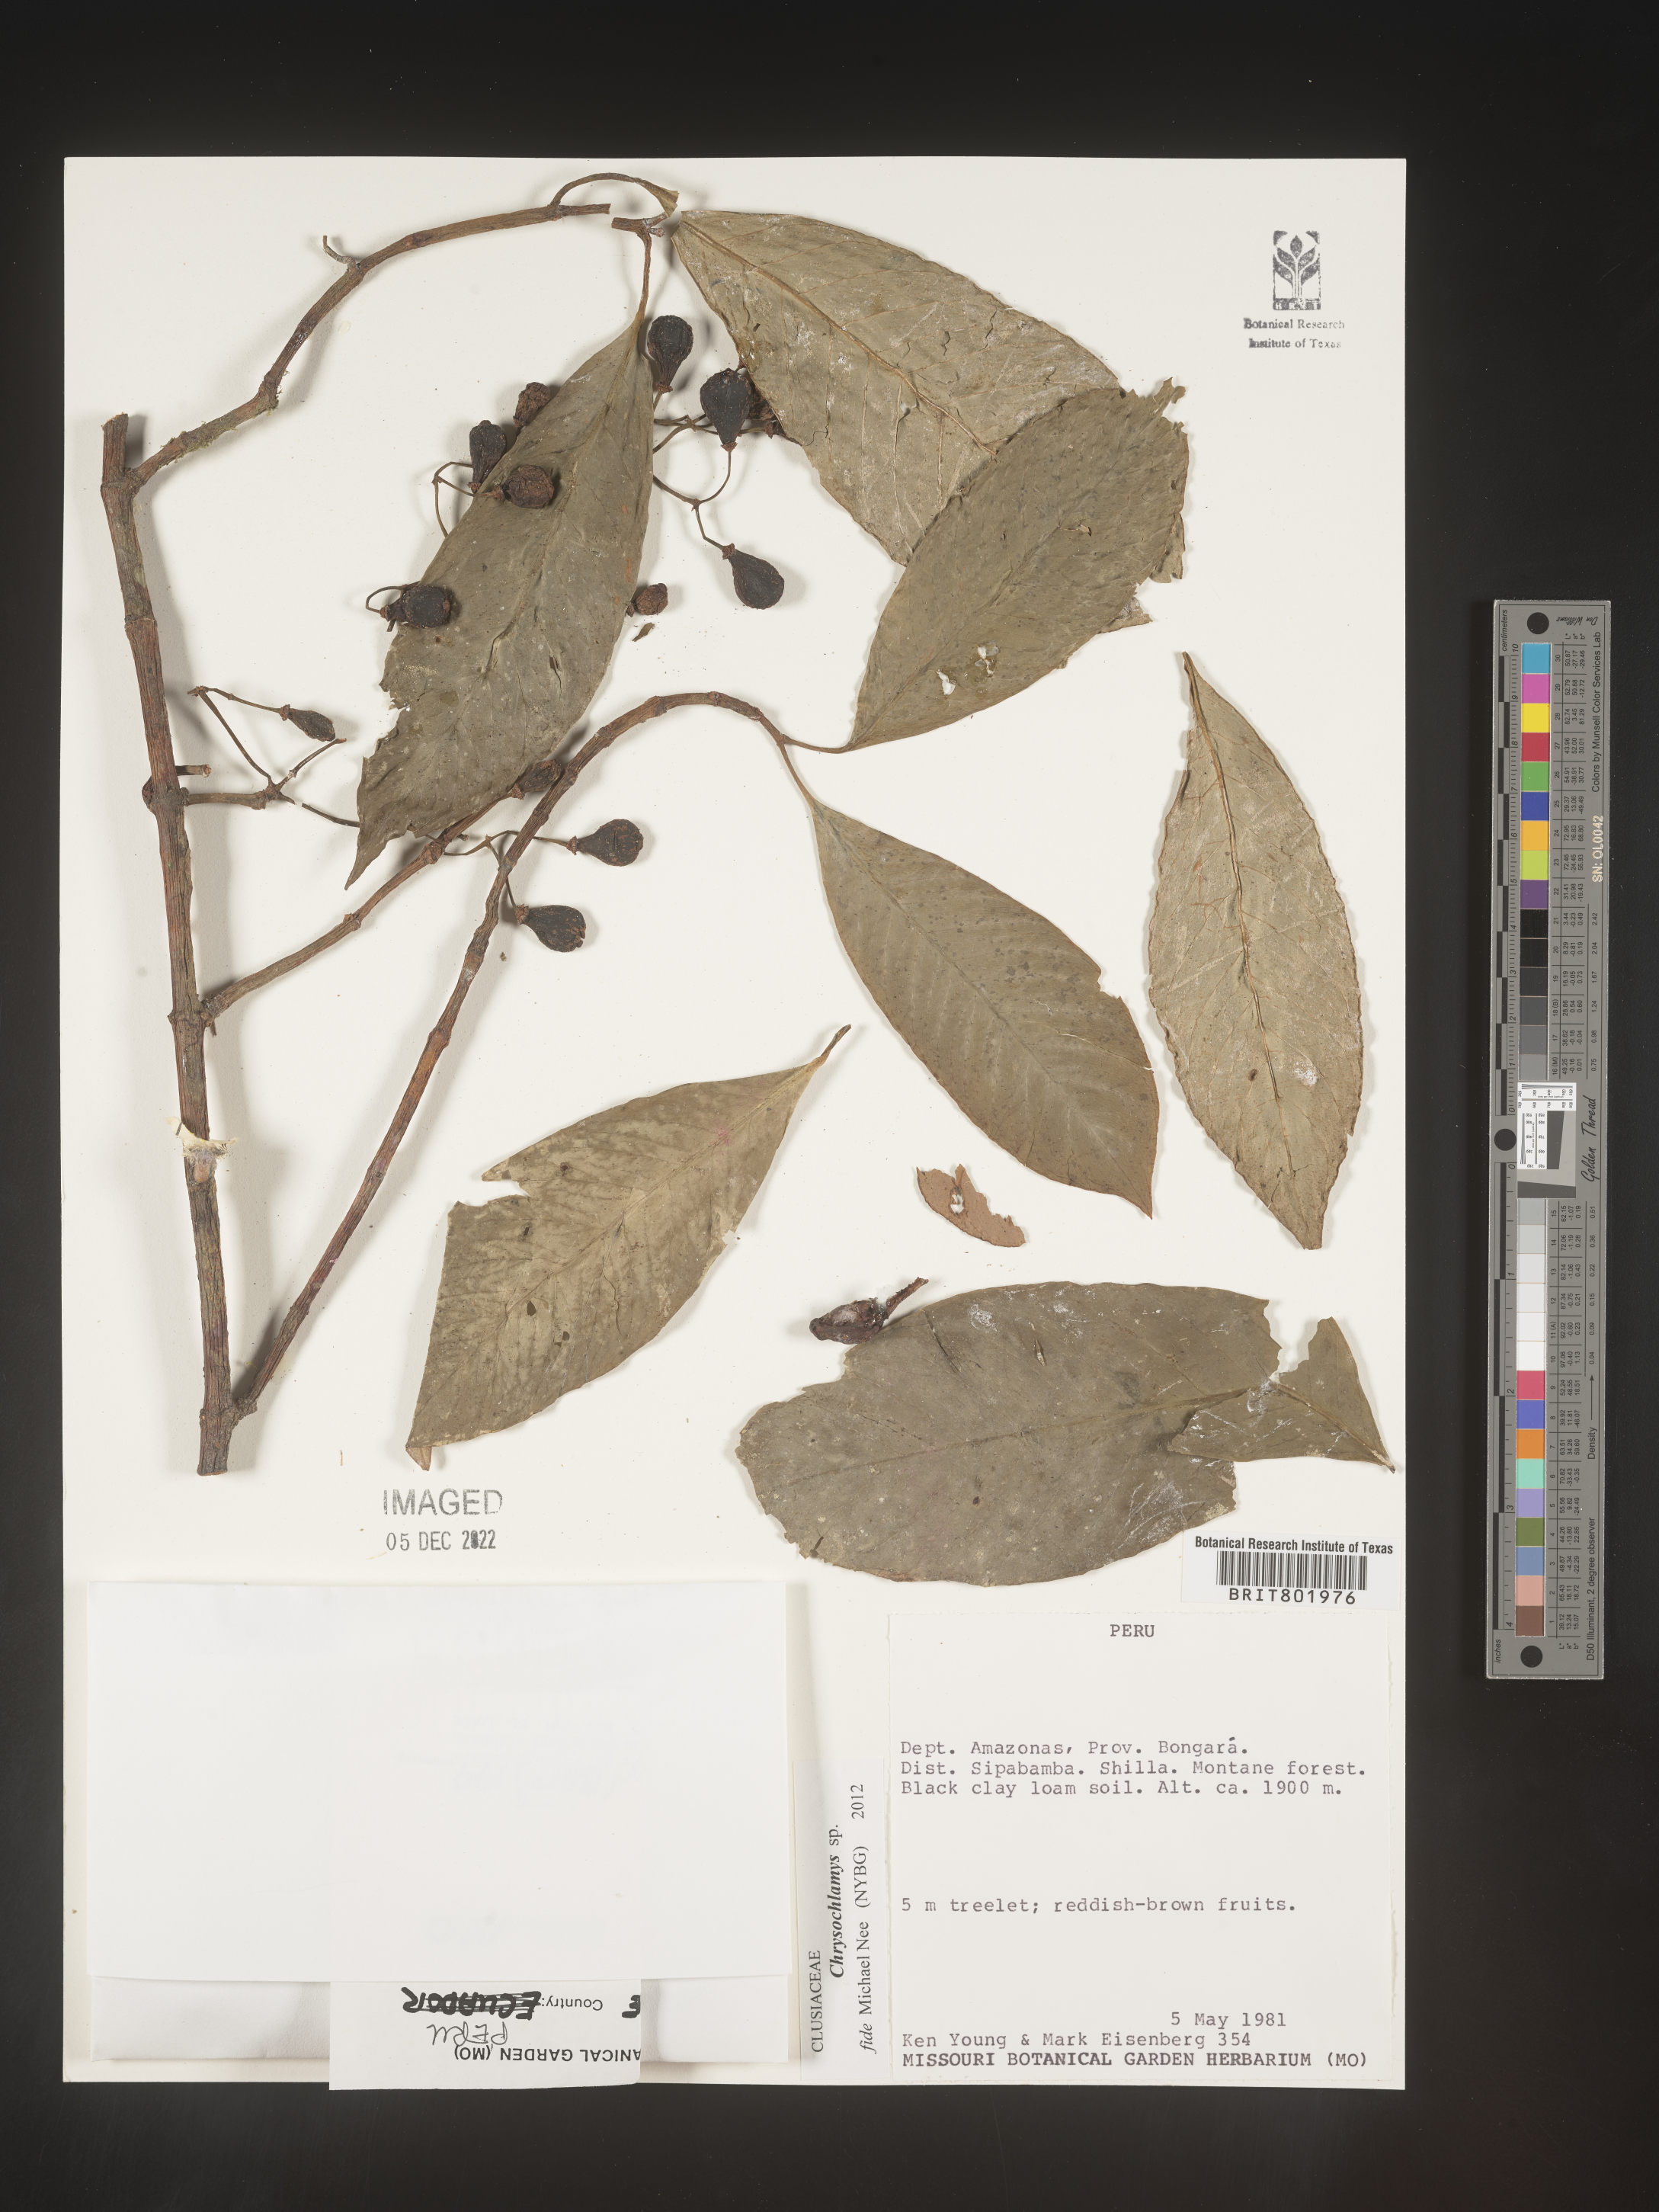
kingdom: Plantae
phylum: Tracheophyta
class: Magnoliopsida
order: Malpighiales
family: Clusiaceae
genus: Chrysochlamys
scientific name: Chrysochlamys
